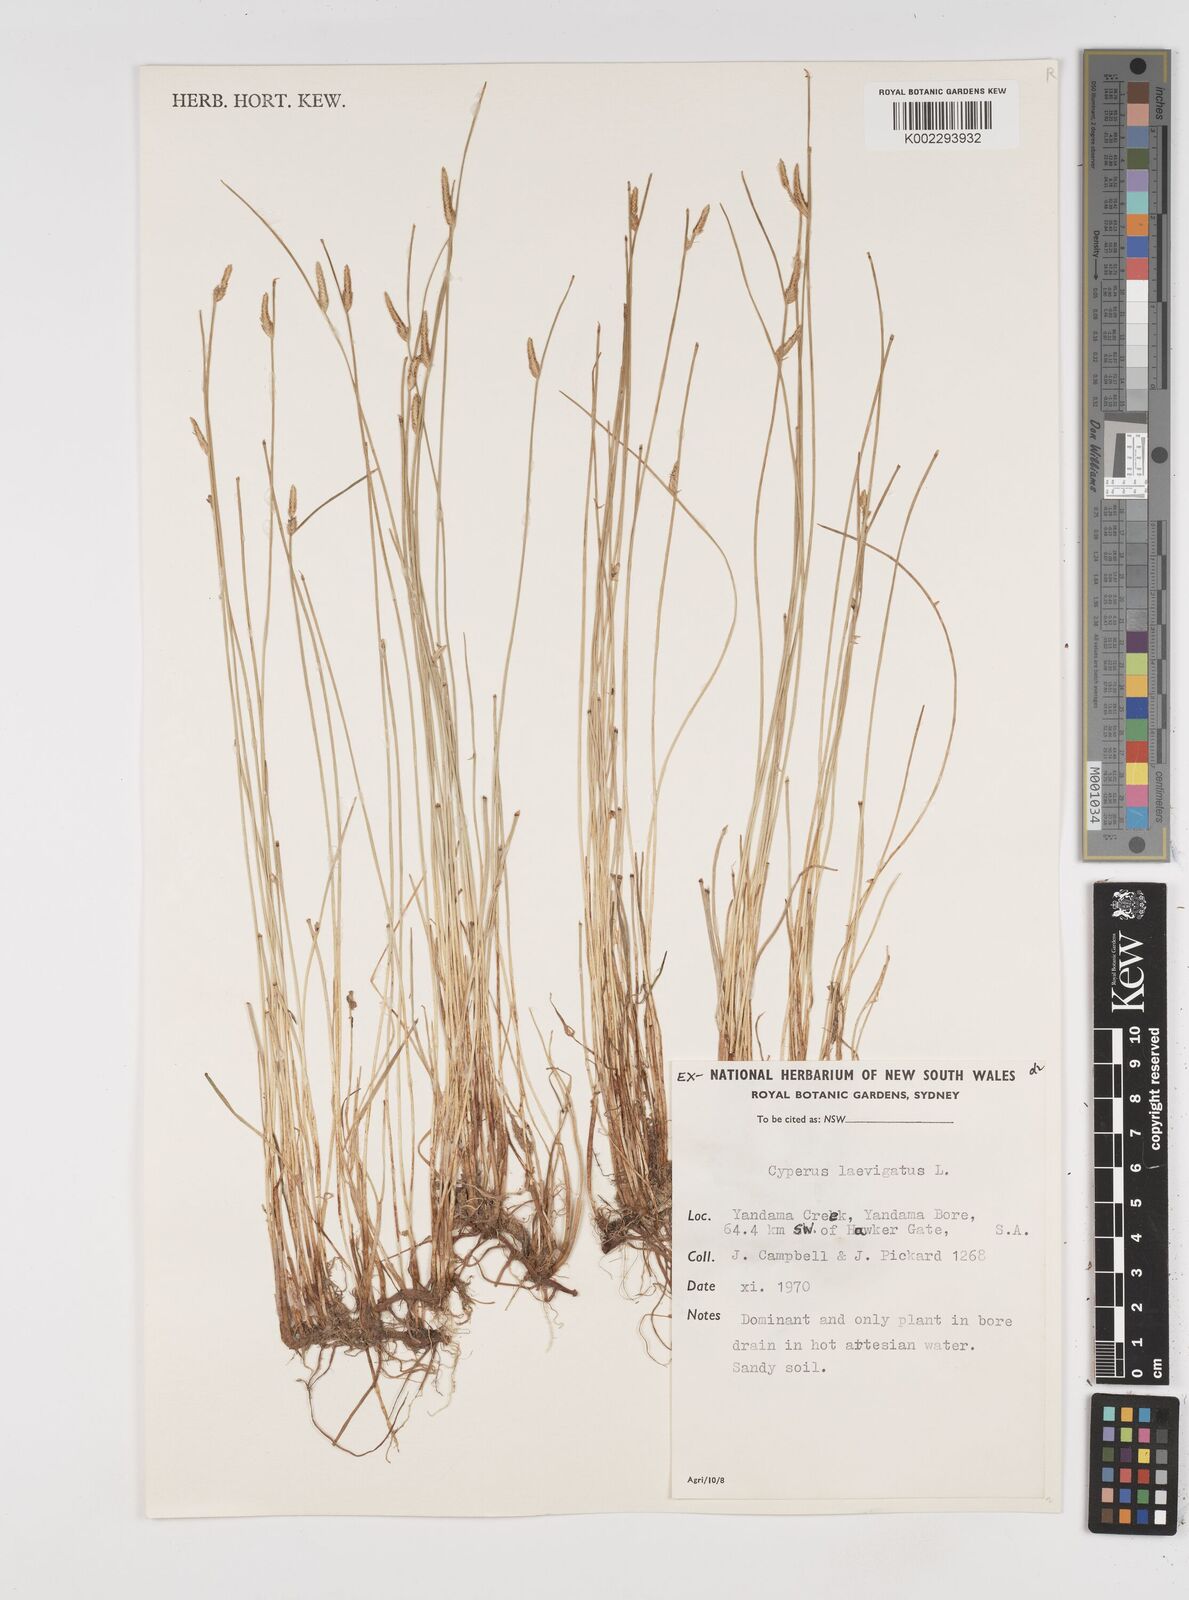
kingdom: Plantae
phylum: Tracheophyta
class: Liliopsida
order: Poales
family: Cyperaceae
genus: Cyperus
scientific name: Cyperus laevigatus
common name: Smooth flat sedge
